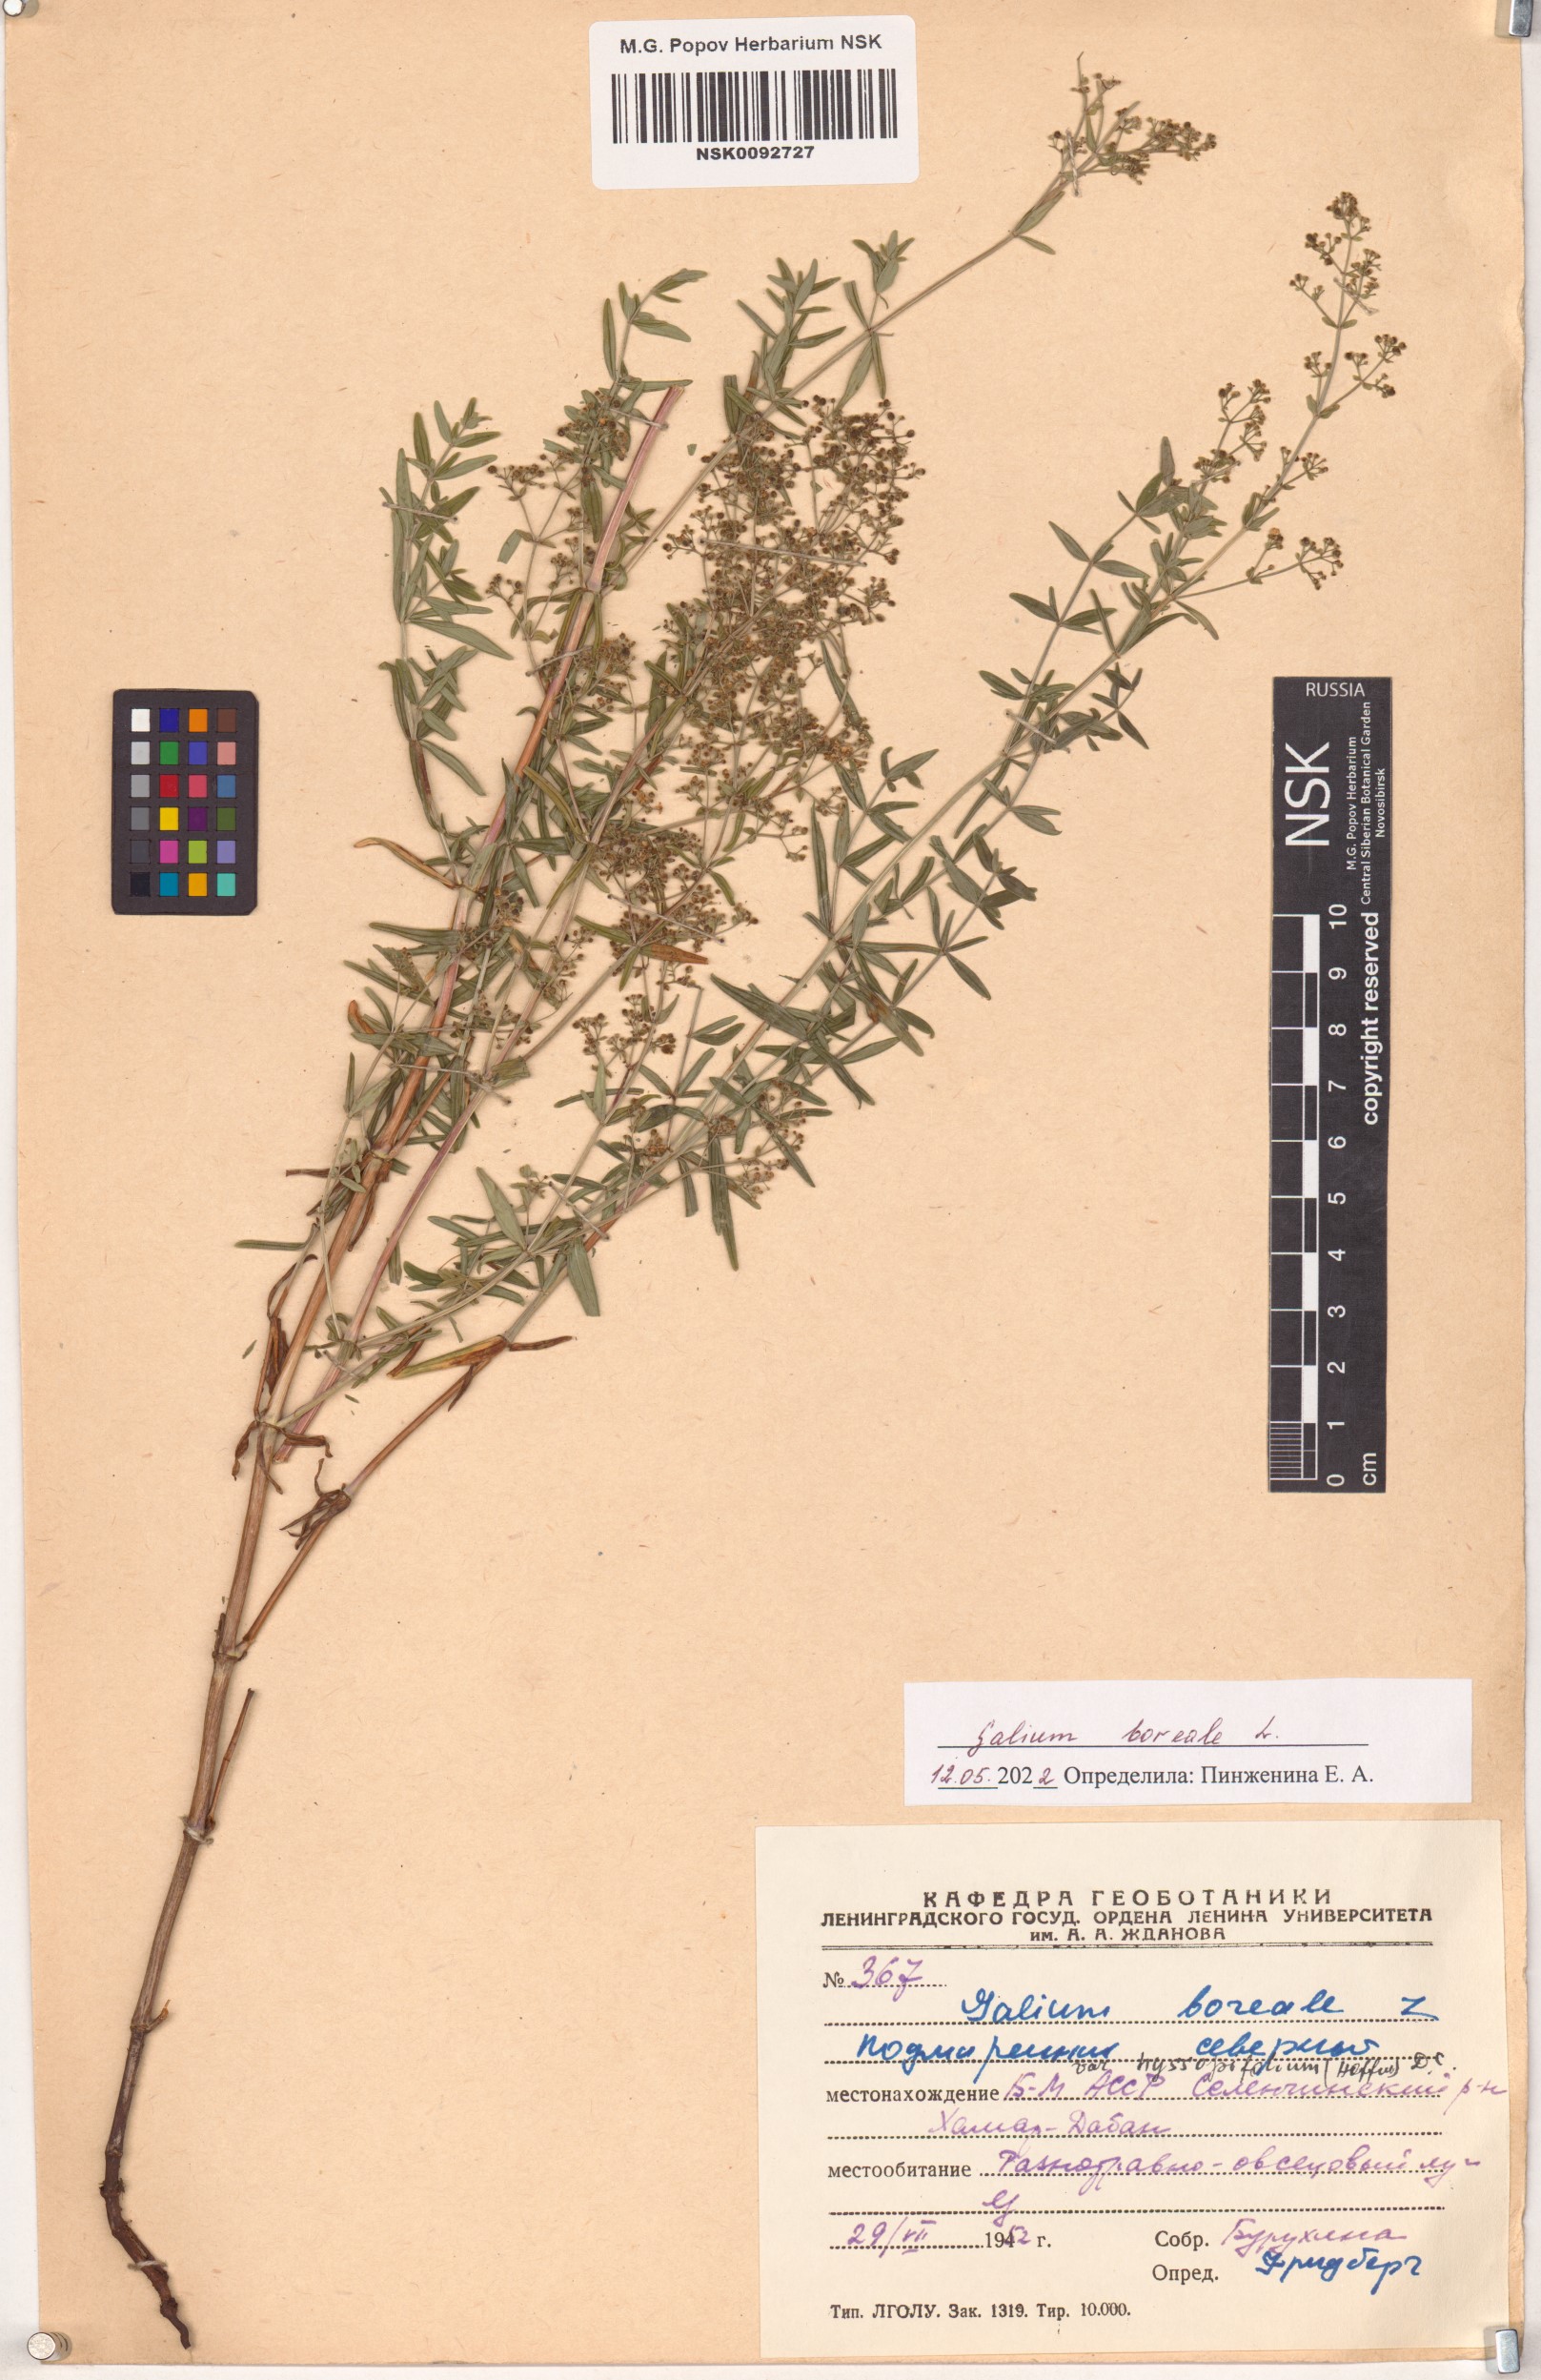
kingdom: Plantae
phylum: Tracheophyta
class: Magnoliopsida
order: Gentianales
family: Rubiaceae
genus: Galium
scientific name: Galium boreale
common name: Northern bedstraw
